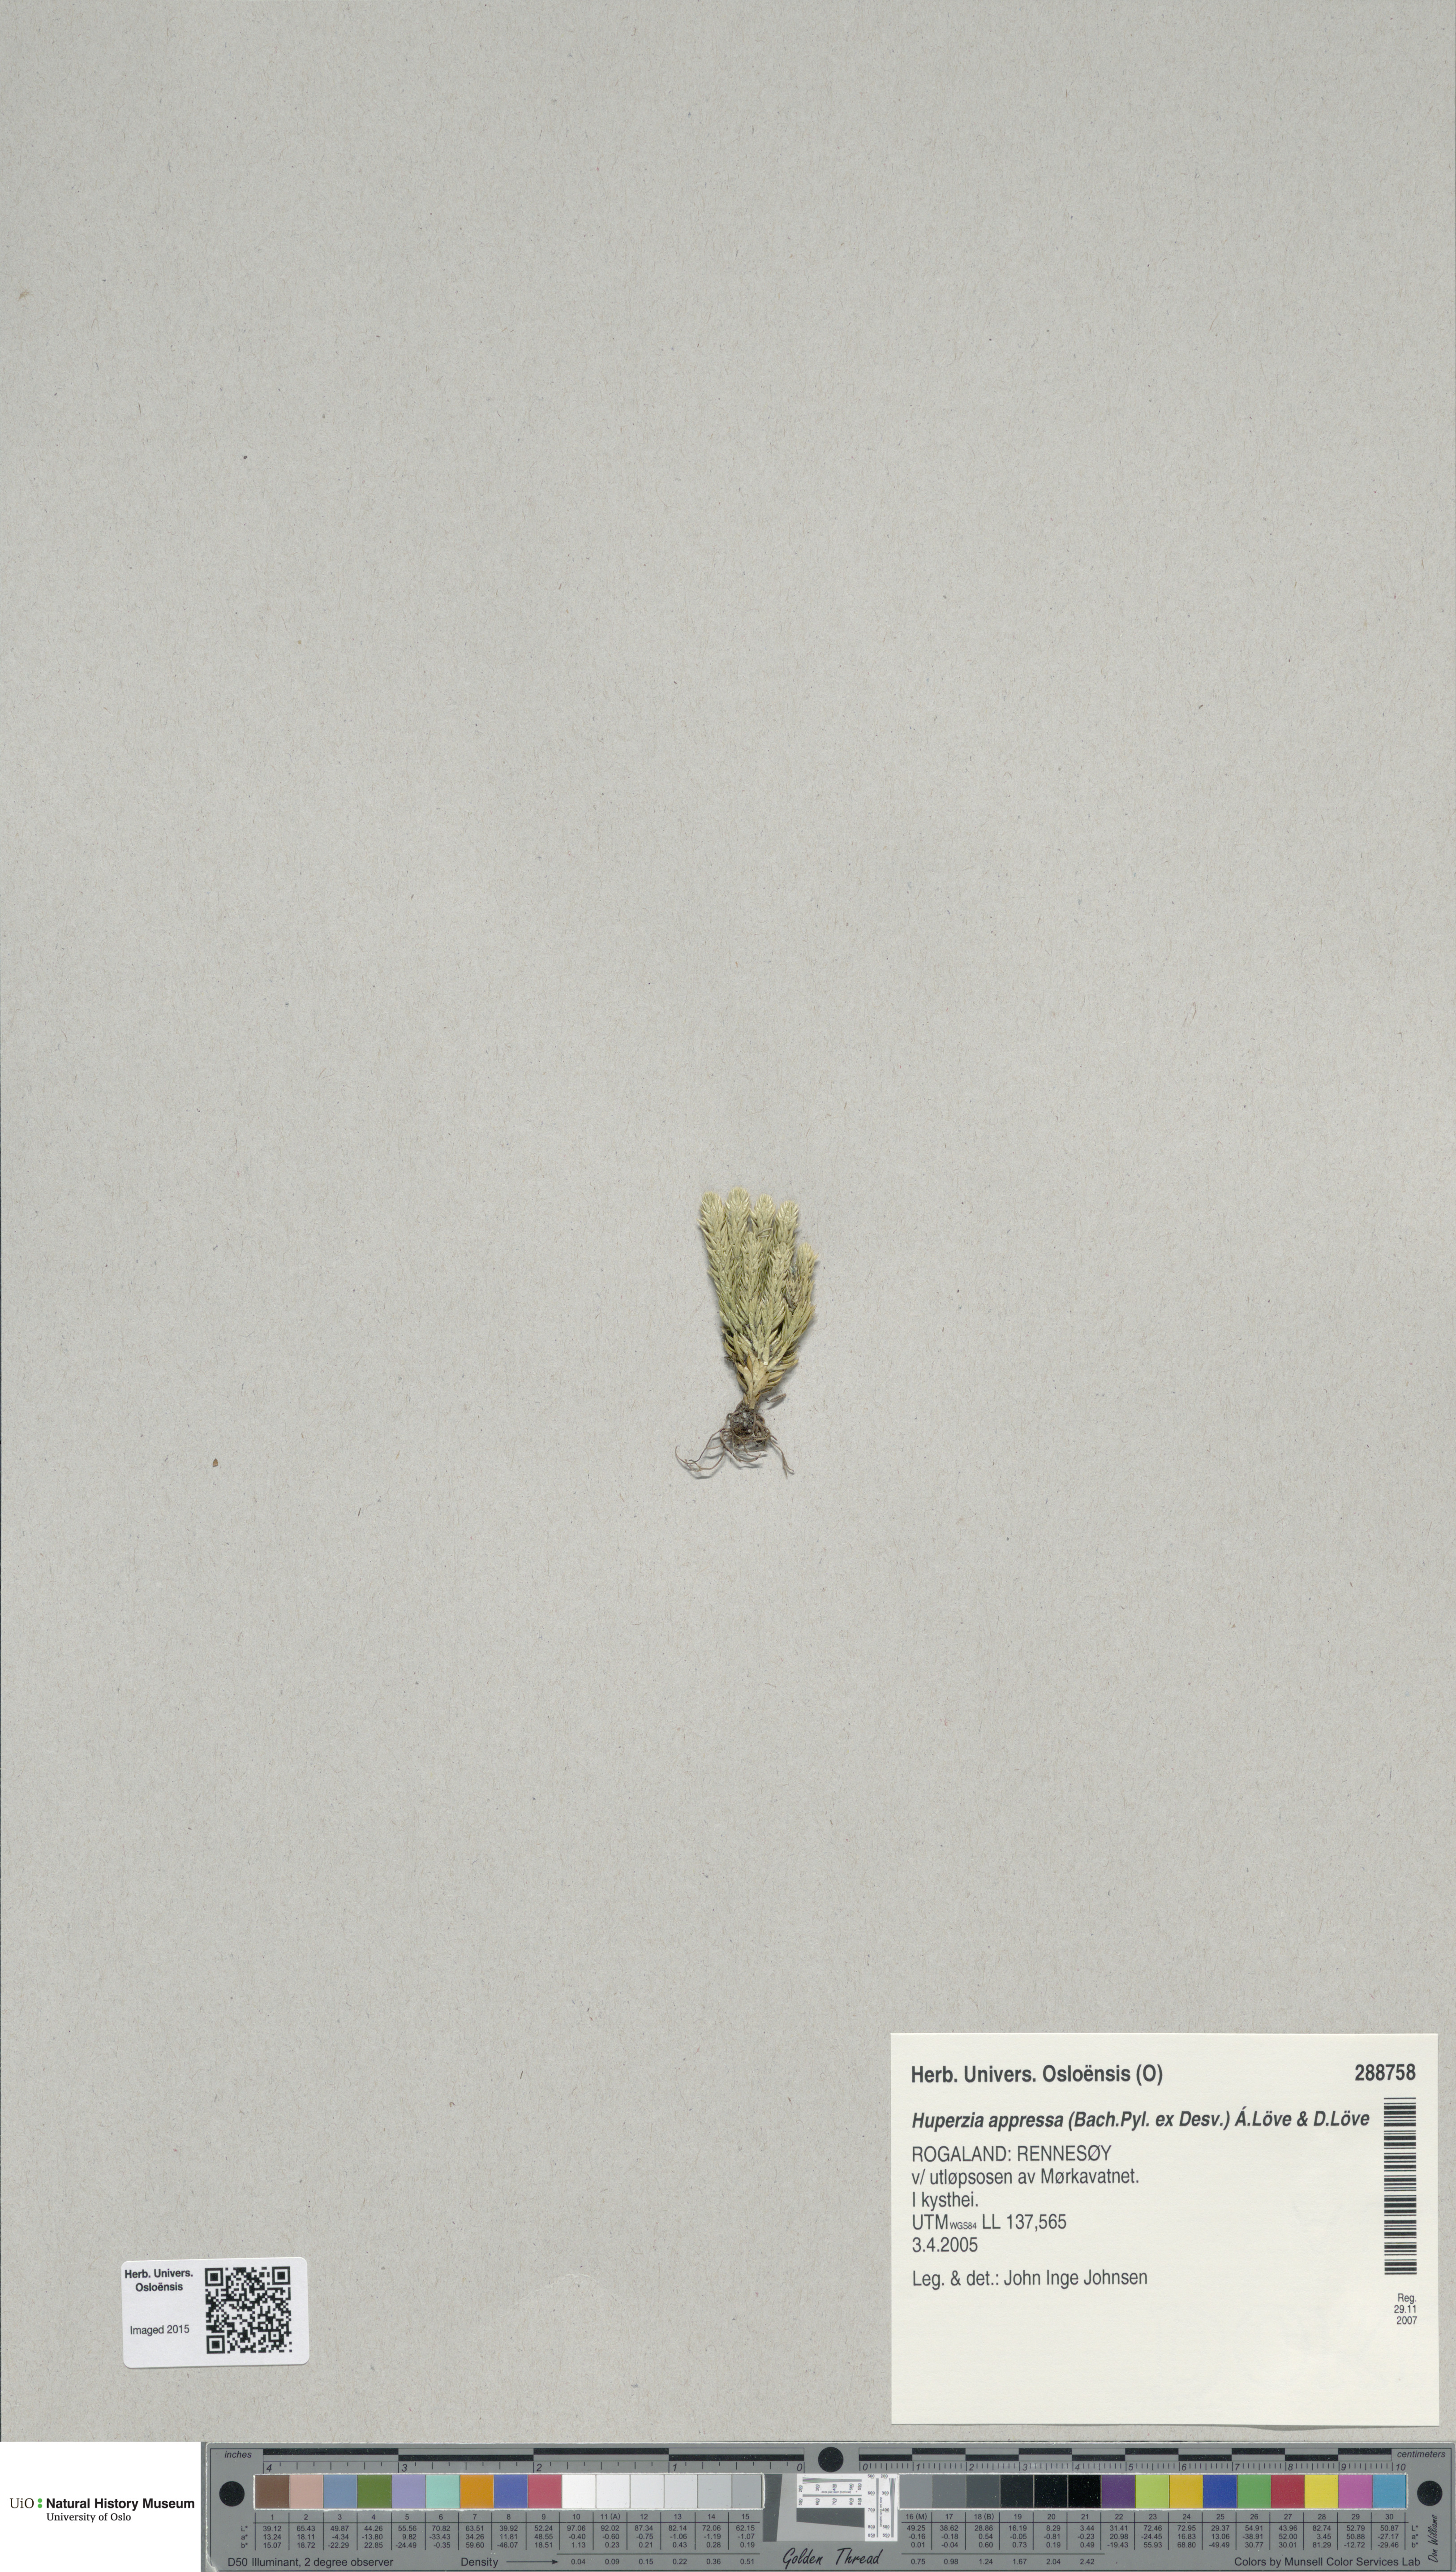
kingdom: Plantae
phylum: Tracheophyta
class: Lycopodiopsida
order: Lycopodiales
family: Lycopodiaceae
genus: Huperzia
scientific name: Huperzia selago
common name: Northern firmoss
